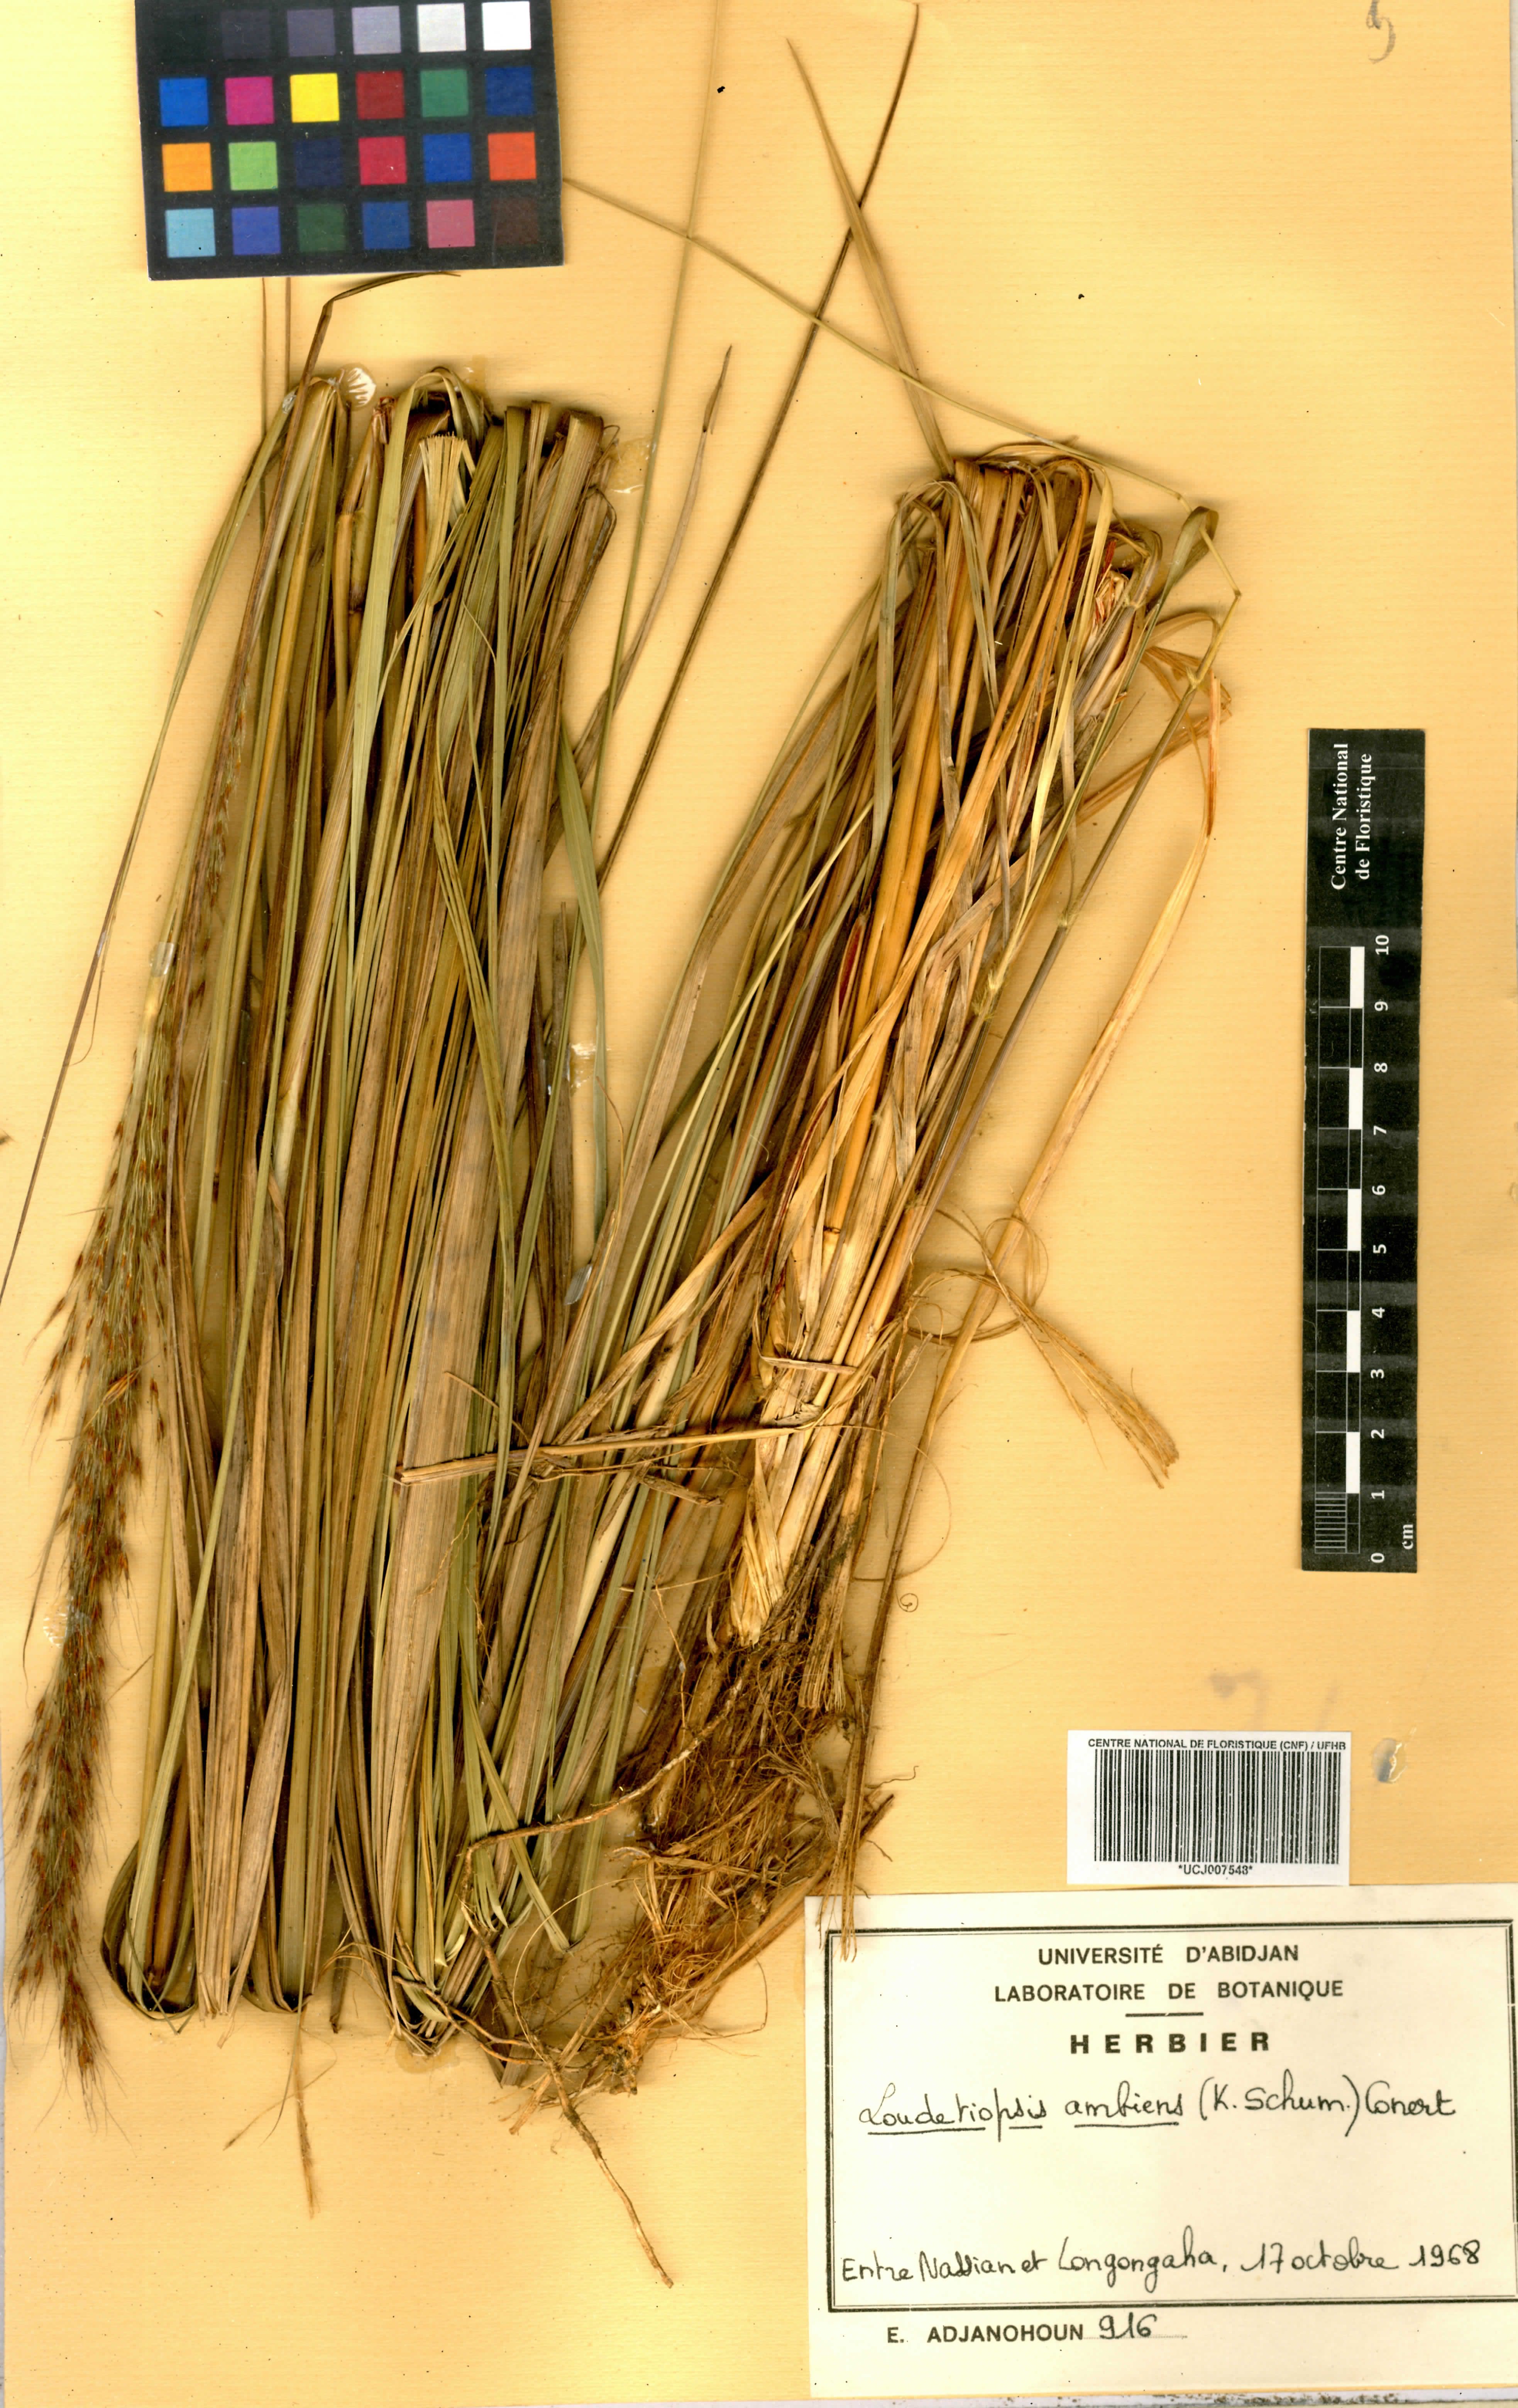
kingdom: Plantae
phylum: Tracheophyta
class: Liliopsida
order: Poales
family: Poaceae
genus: Loudetiopsis
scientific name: Loudetiopsis ambiens
